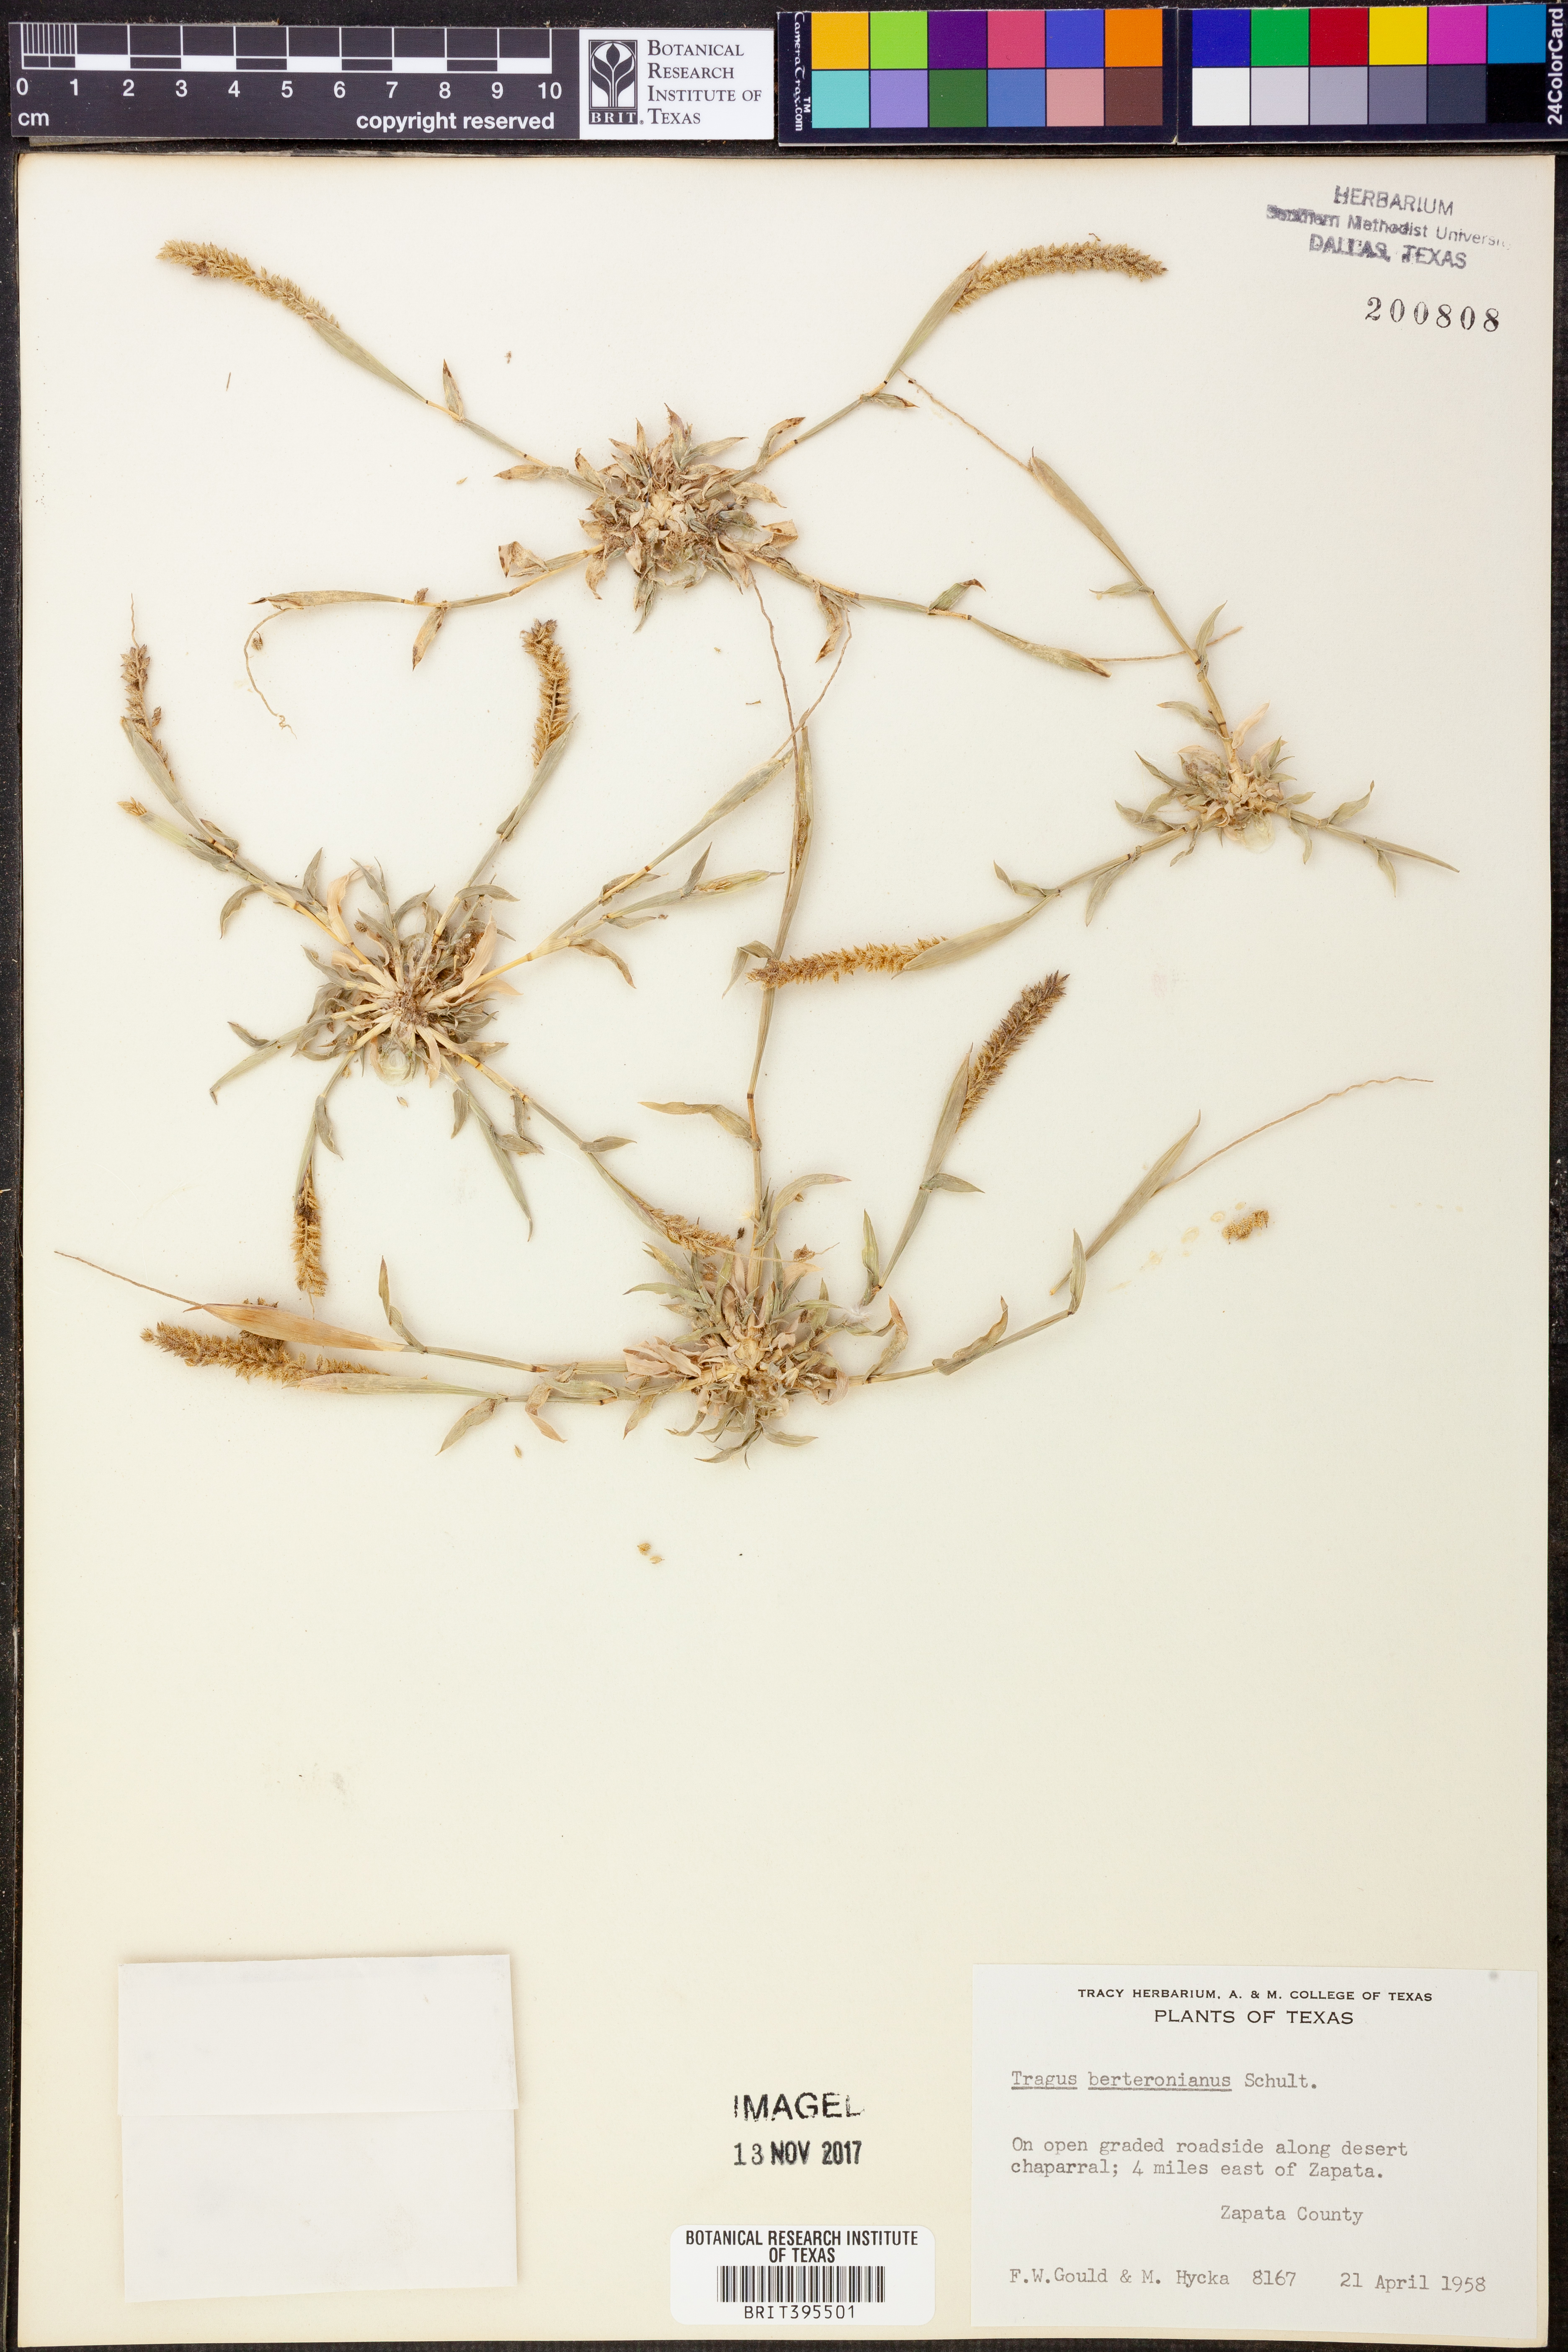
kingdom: Plantae
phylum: Tracheophyta
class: Liliopsida
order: Poales
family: Poaceae
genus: Tragus
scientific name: Tragus berteronianus
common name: African bur-grass
